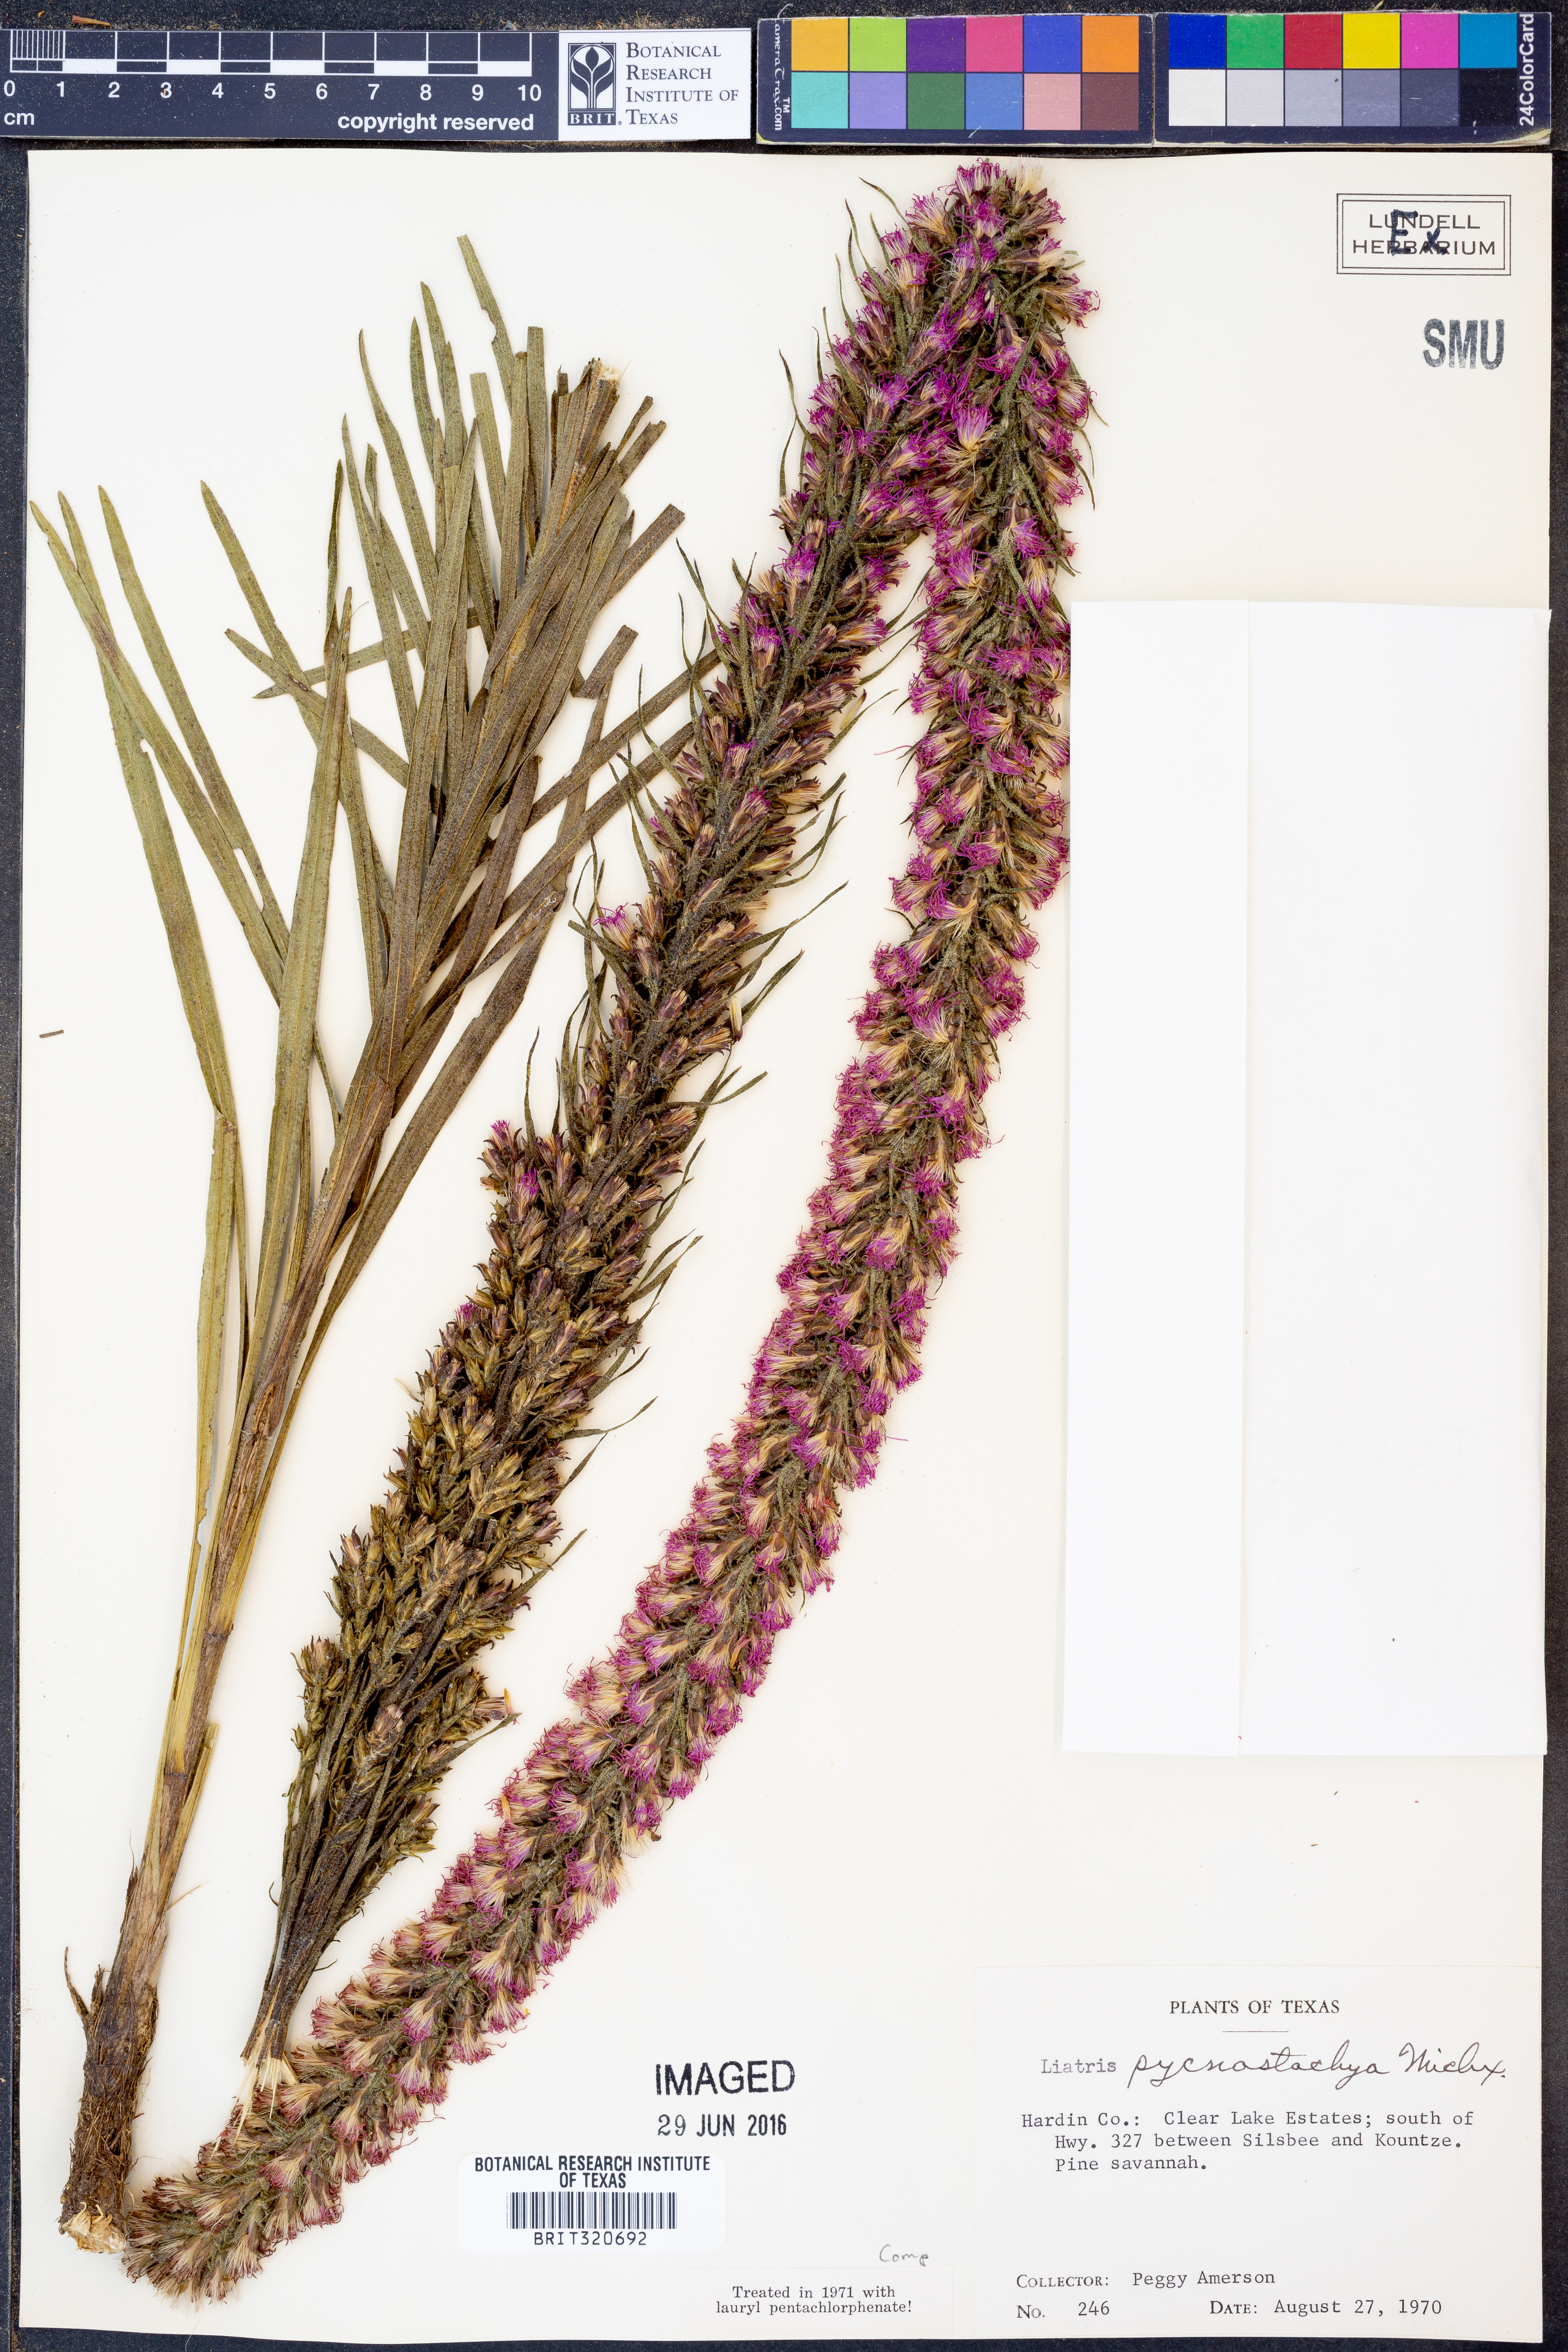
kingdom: Plantae
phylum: Tracheophyta
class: Magnoliopsida
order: Asterales
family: Asteraceae
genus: Liatris
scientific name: Liatris pycnostachya
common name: Cattail gayfeather
